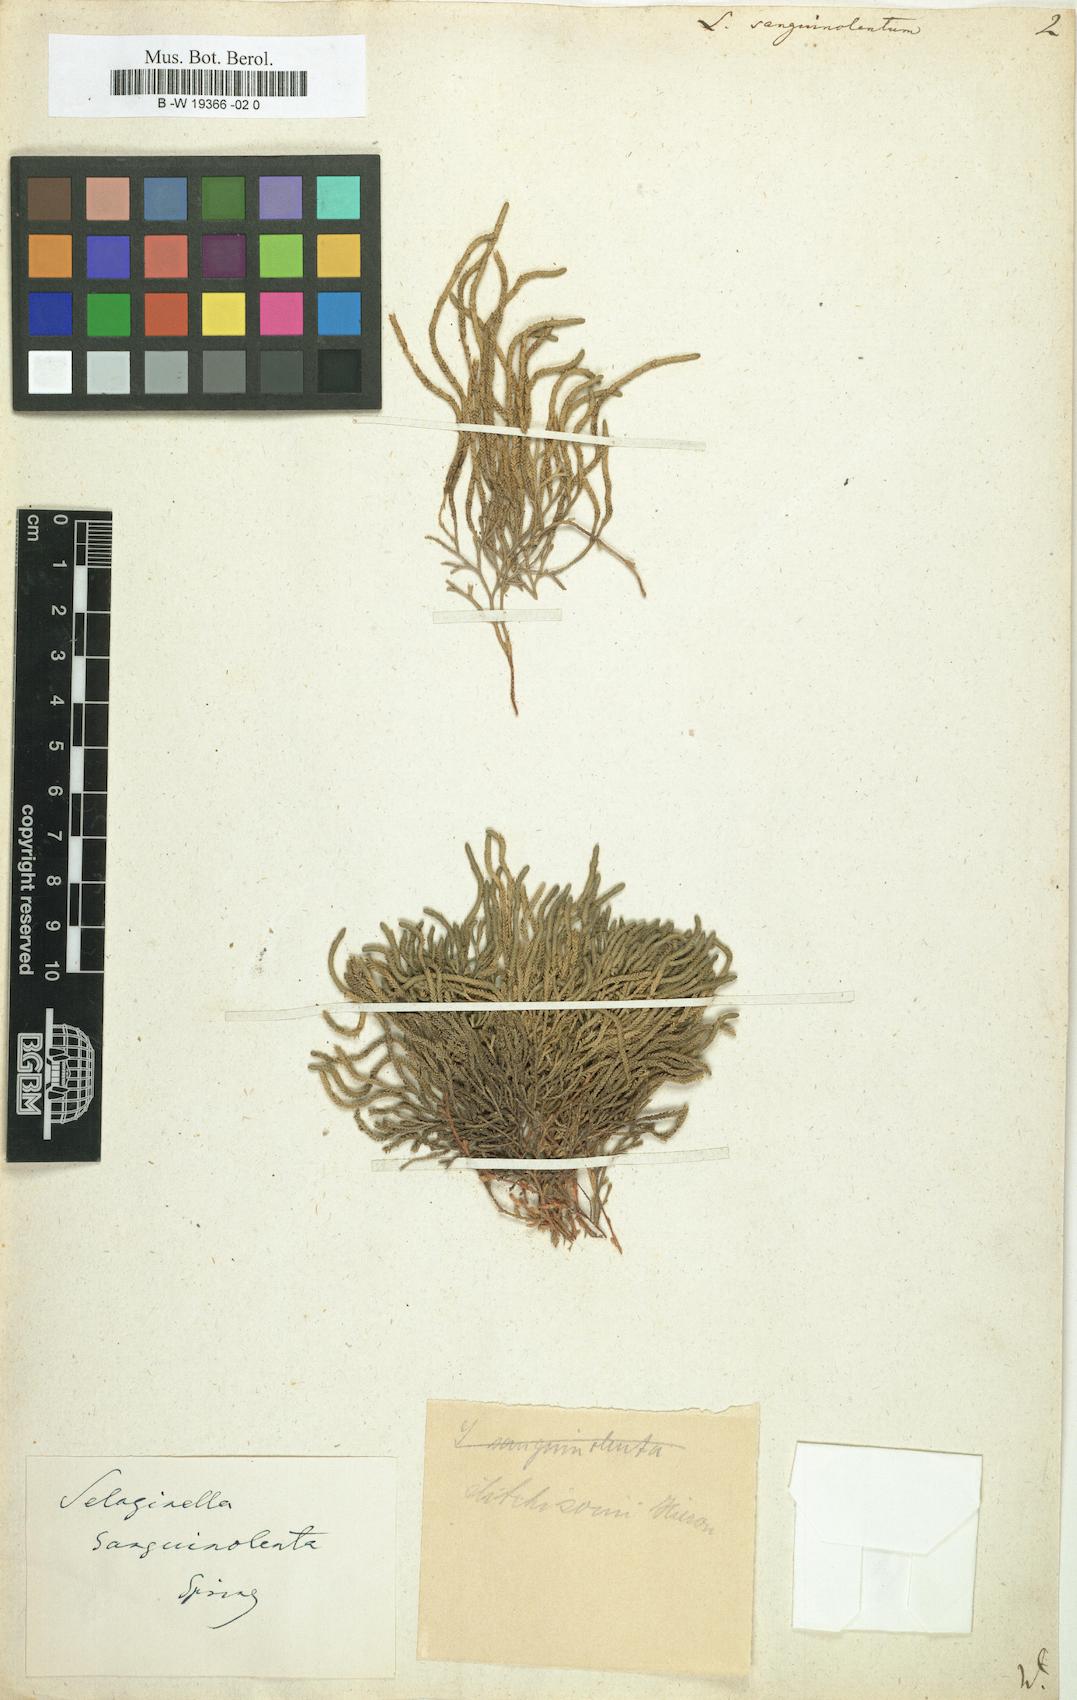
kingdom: Plantae
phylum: Tracheophyta
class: Lycopodiopsida
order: Selaginellales
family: Selaginellaceae
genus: Selaginella
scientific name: Selaginella
